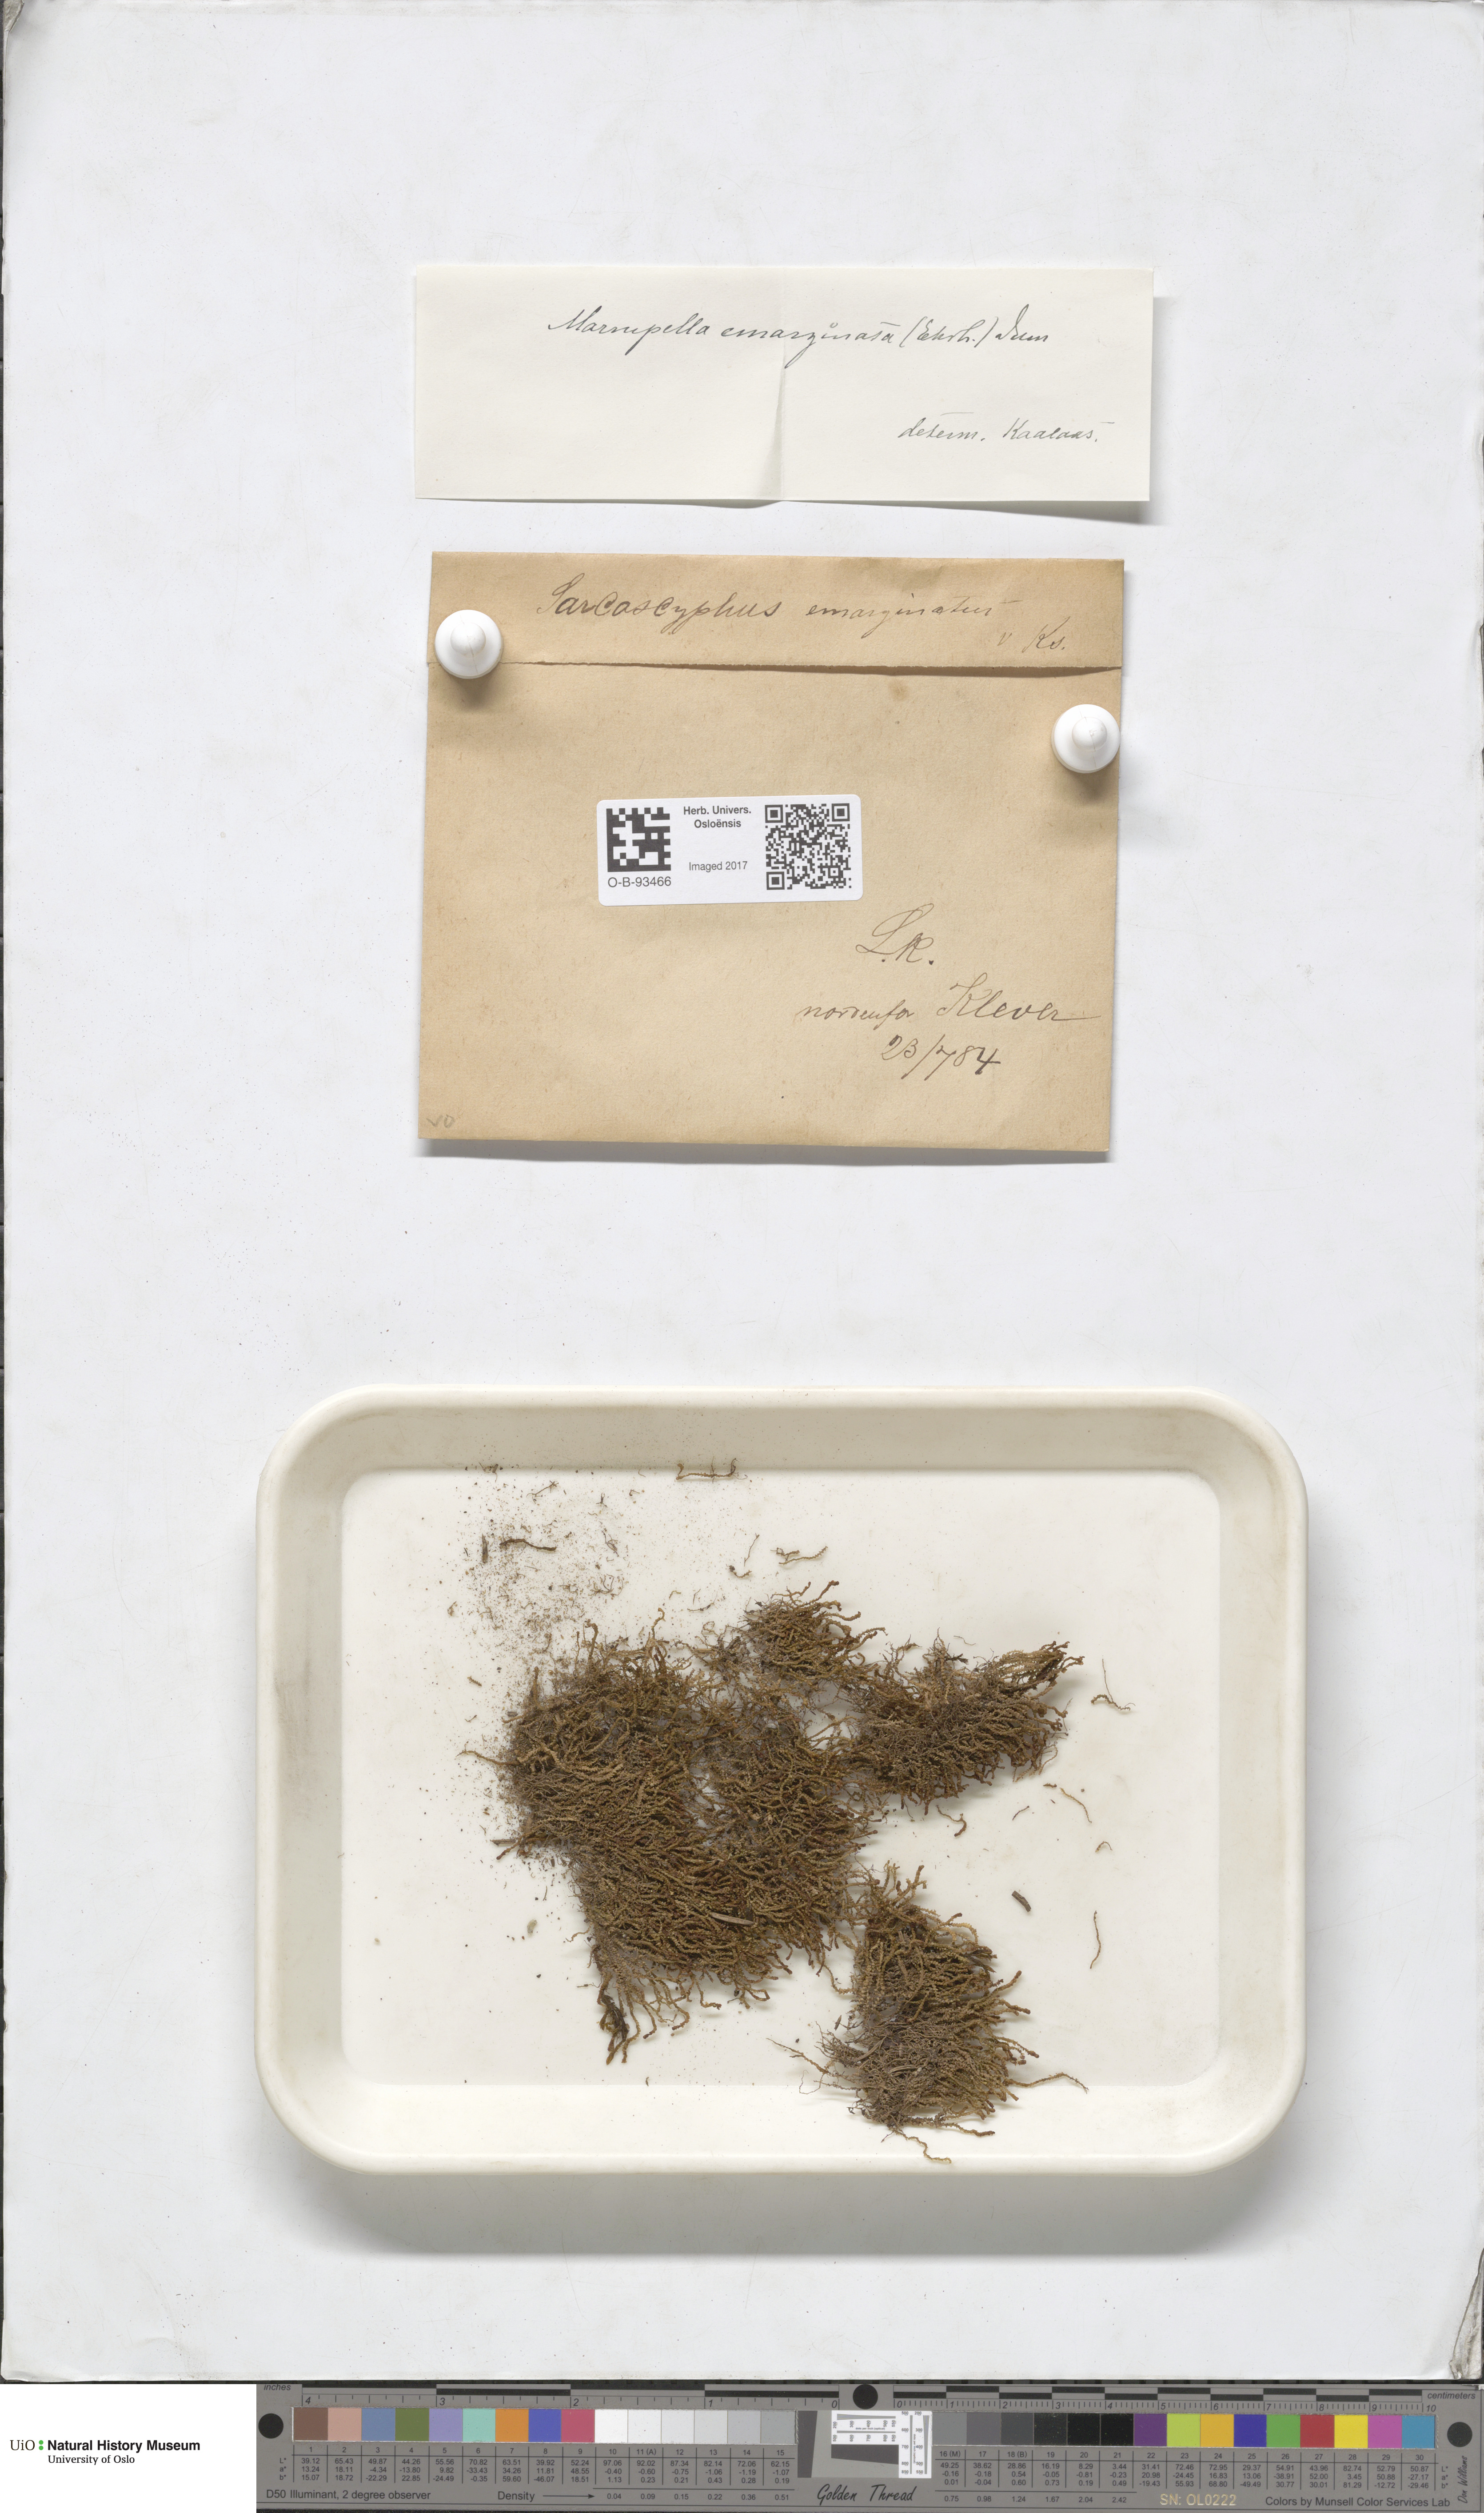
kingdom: Plantae
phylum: Marchantiophyta
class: Jungermanniopsida
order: Jungermanniales
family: Gymnomitriaceae
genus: Marsupella
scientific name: Marsupella emarginata
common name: Notched rustwort
